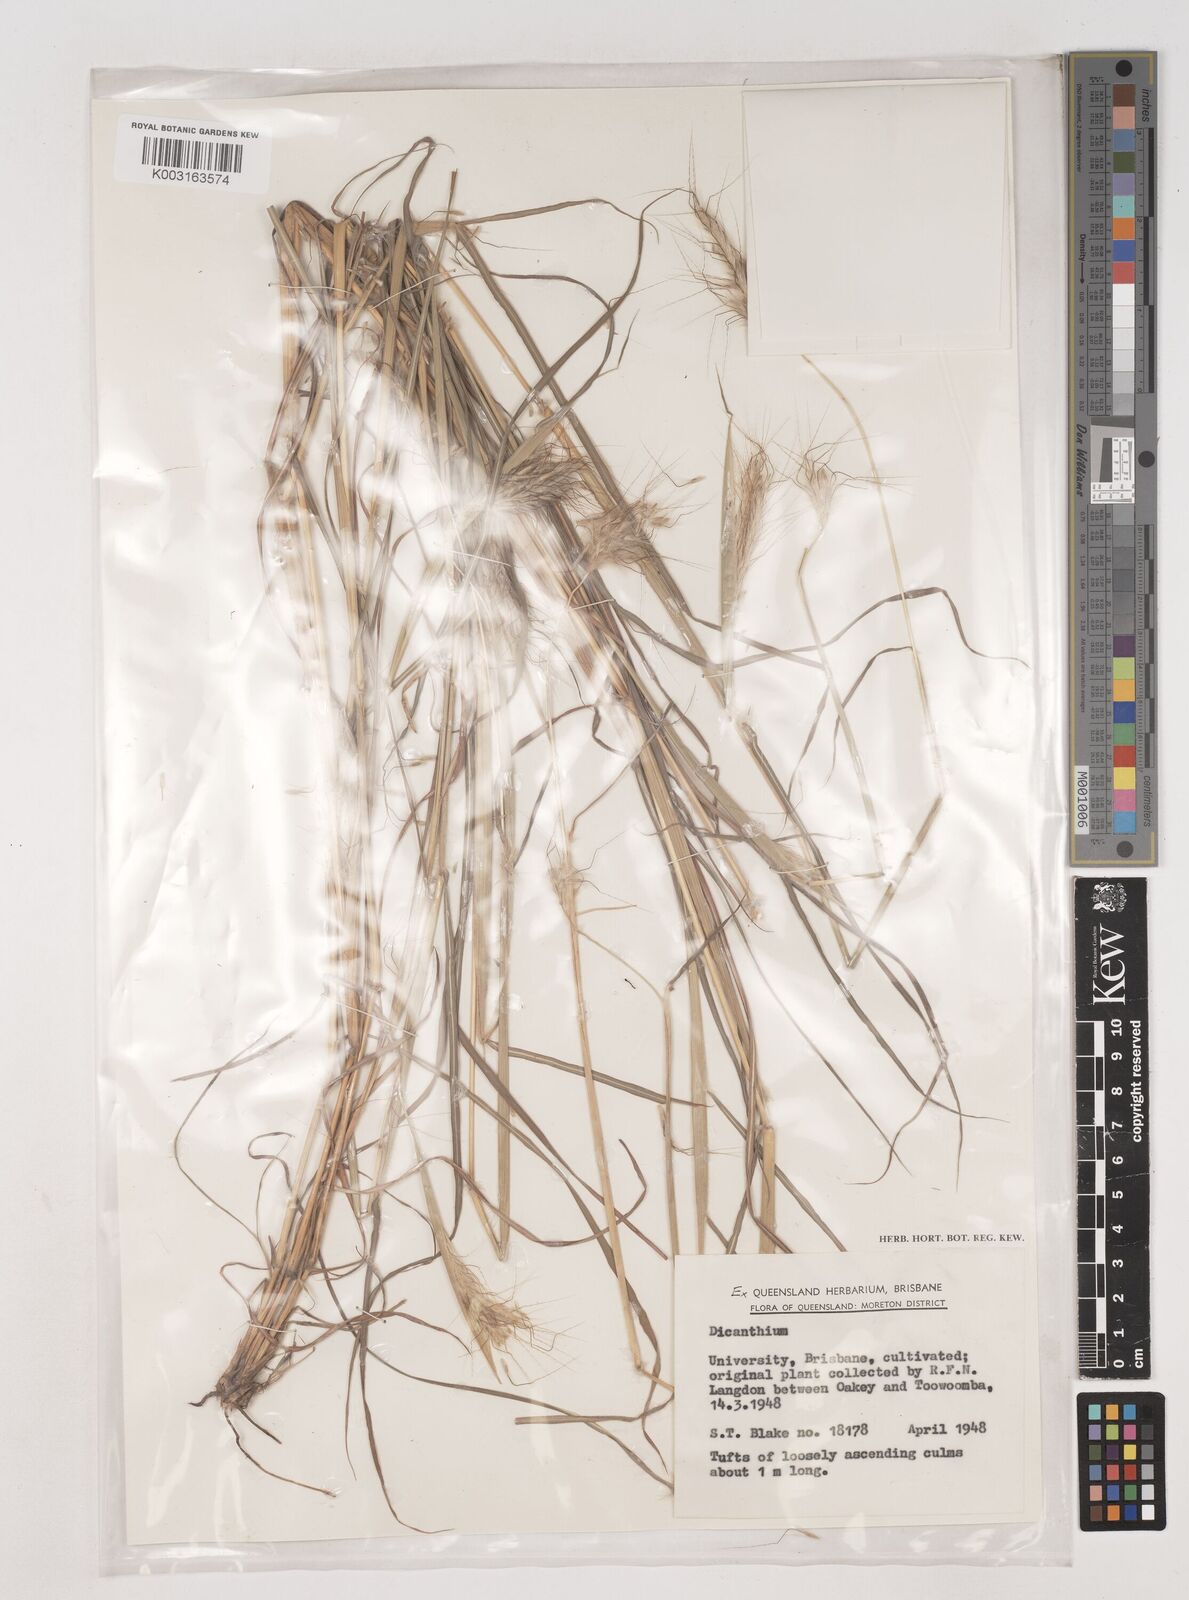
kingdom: Plantae
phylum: Tracheophyta
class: Liliopsida
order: Poales
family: Poaceae
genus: Dichanthium
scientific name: Dichanthium
